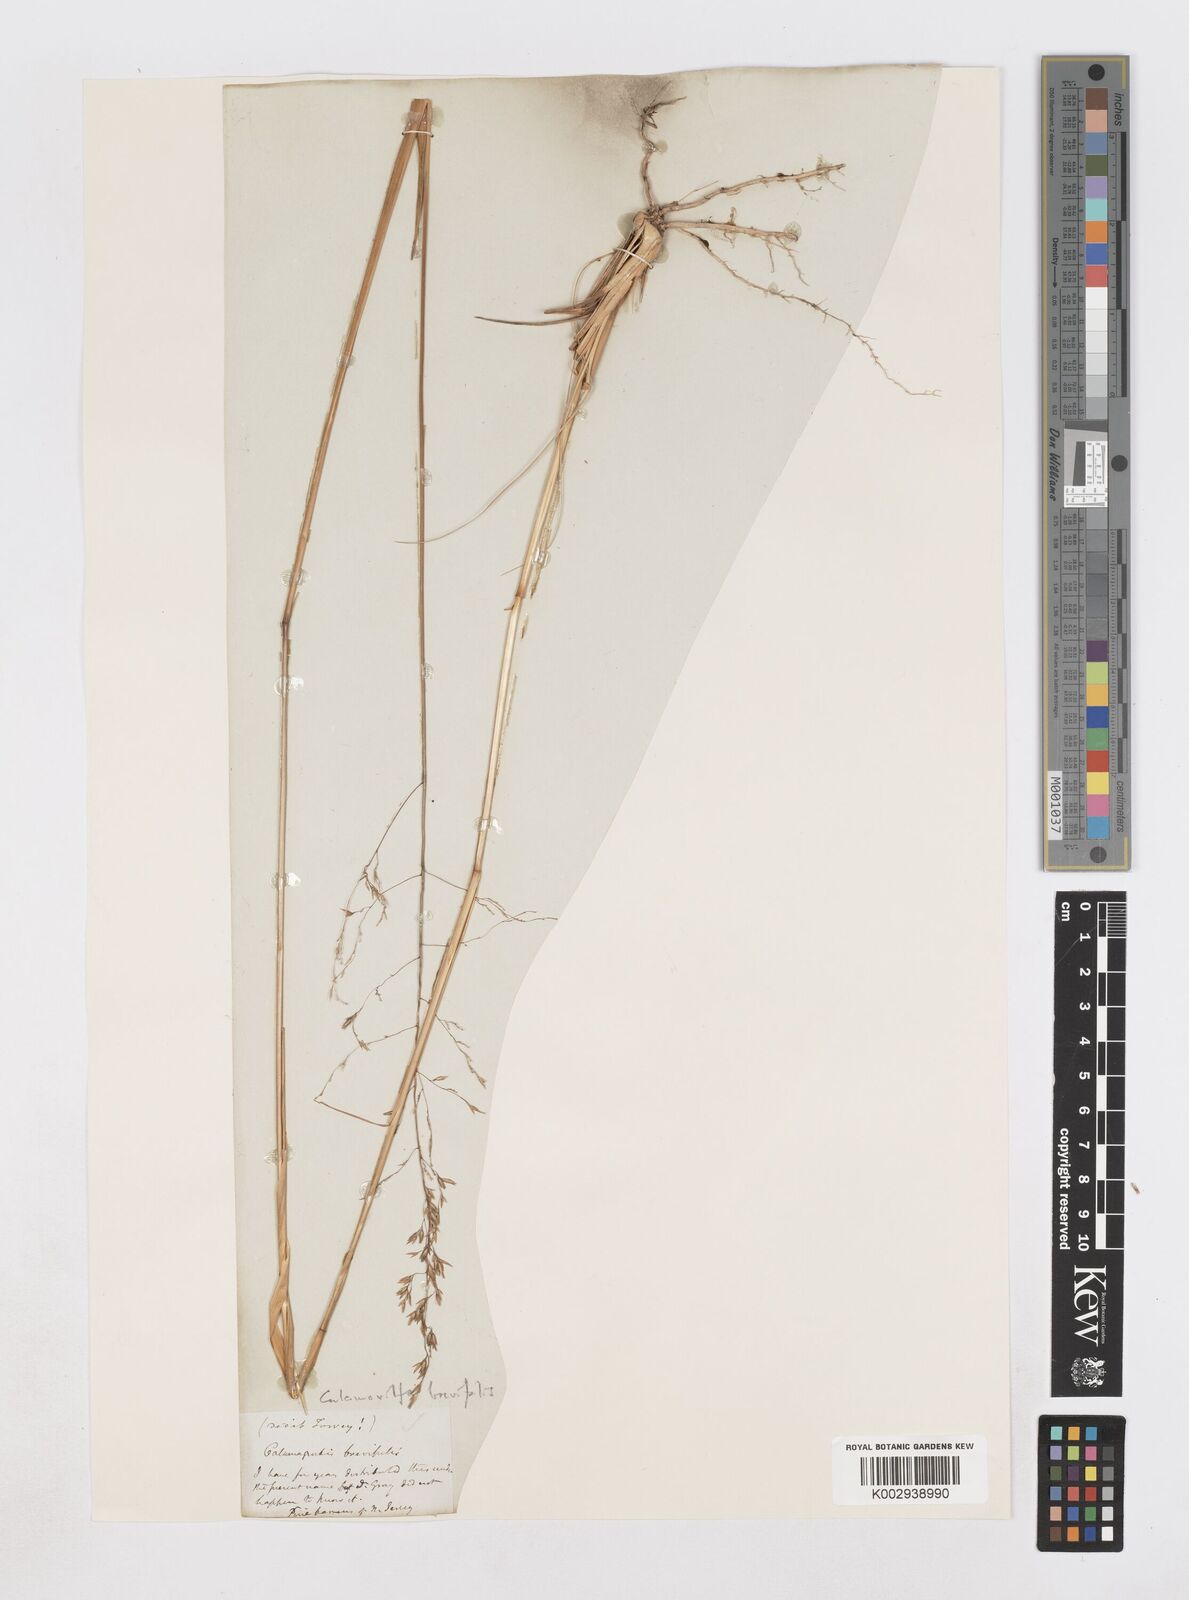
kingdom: Plantae
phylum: Tracheophyta
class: Liliopsida
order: Poales
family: Poaceae
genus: Sporobolus
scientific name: Sporobolus brevipilis
